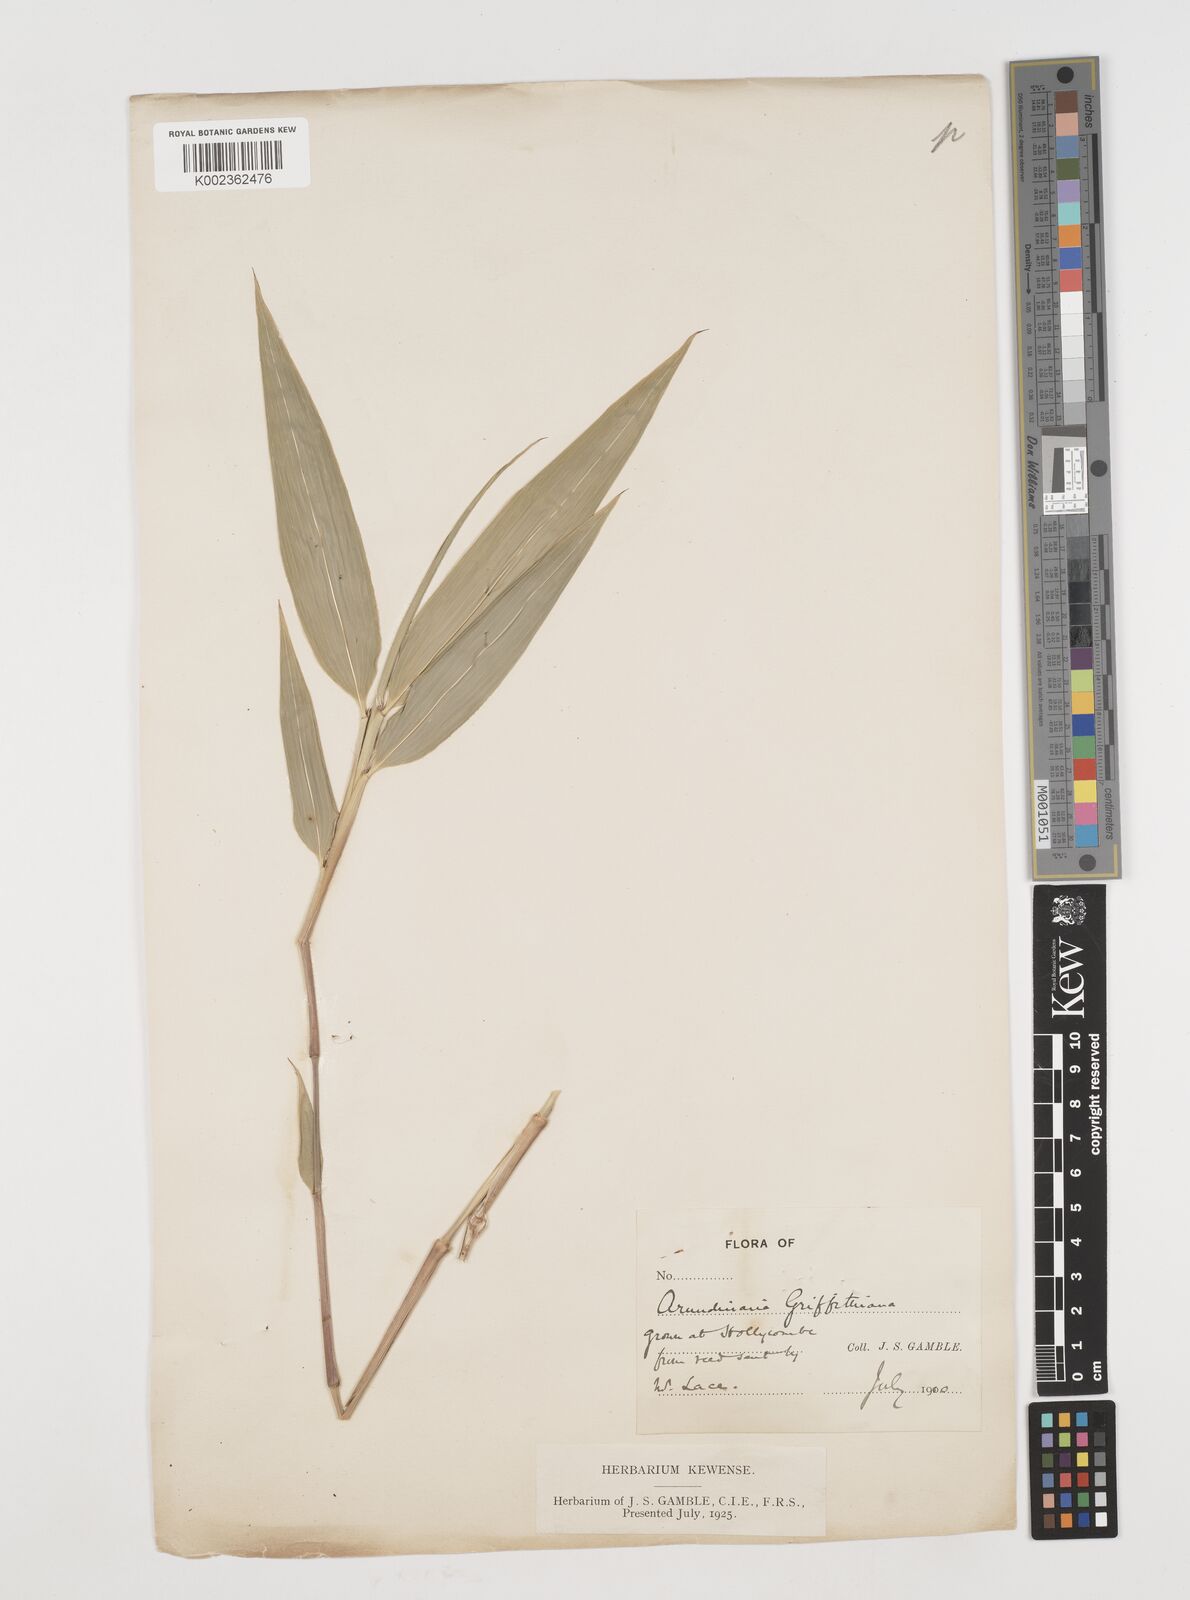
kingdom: Plantae
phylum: Tracheophyta
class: Liliopsida
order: Poales
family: Poaceae
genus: Chimonocalamus
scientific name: Chimonocalamus griffithianus
